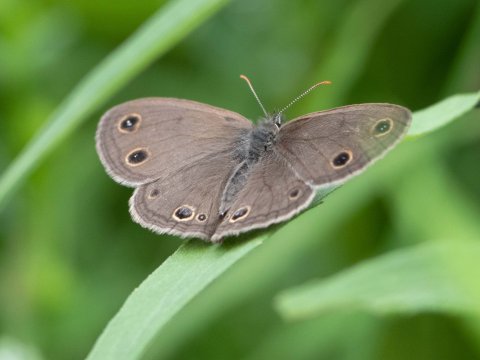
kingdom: Animalia
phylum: Arthropoda
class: Insecta
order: Lepidoptera
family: Nymphalidae
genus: Euptychia
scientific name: Euptychia cymela
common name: Little Wood Satyr
